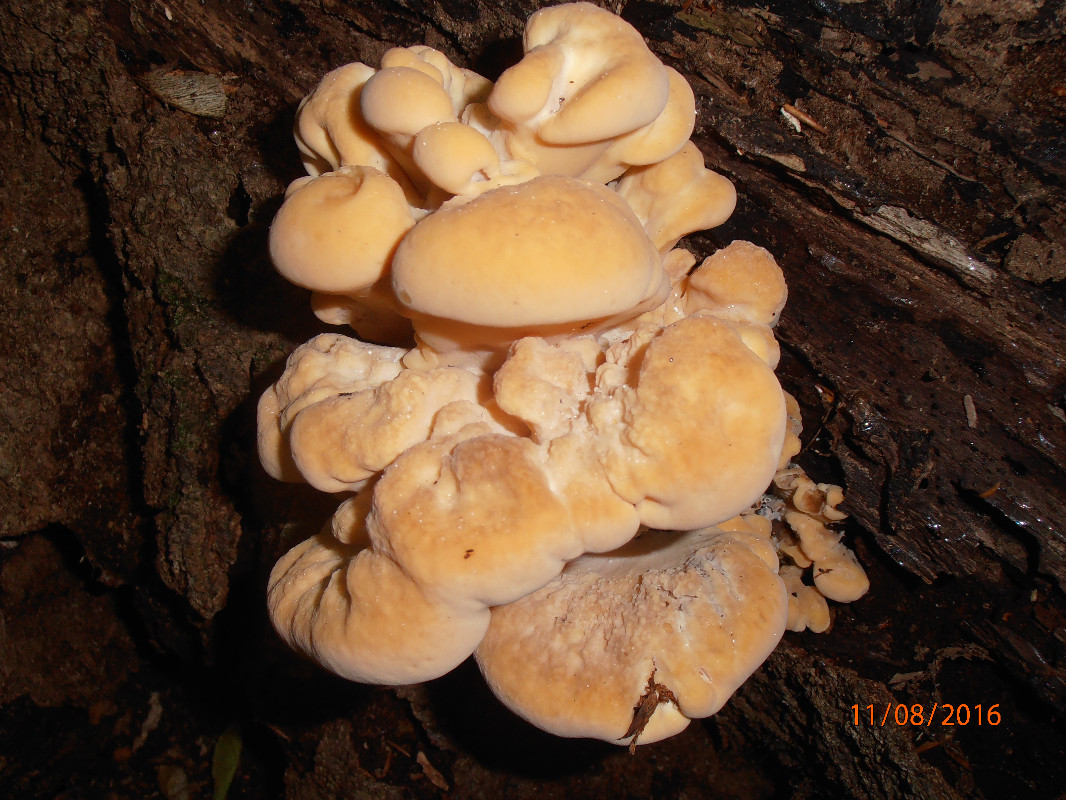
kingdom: Fungi
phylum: Basidiomycota
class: Agaricomycetes
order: Polyporales
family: Meripilaceae
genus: Meripilus
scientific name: Meripilus giganteus
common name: kæmpeporesvamp
